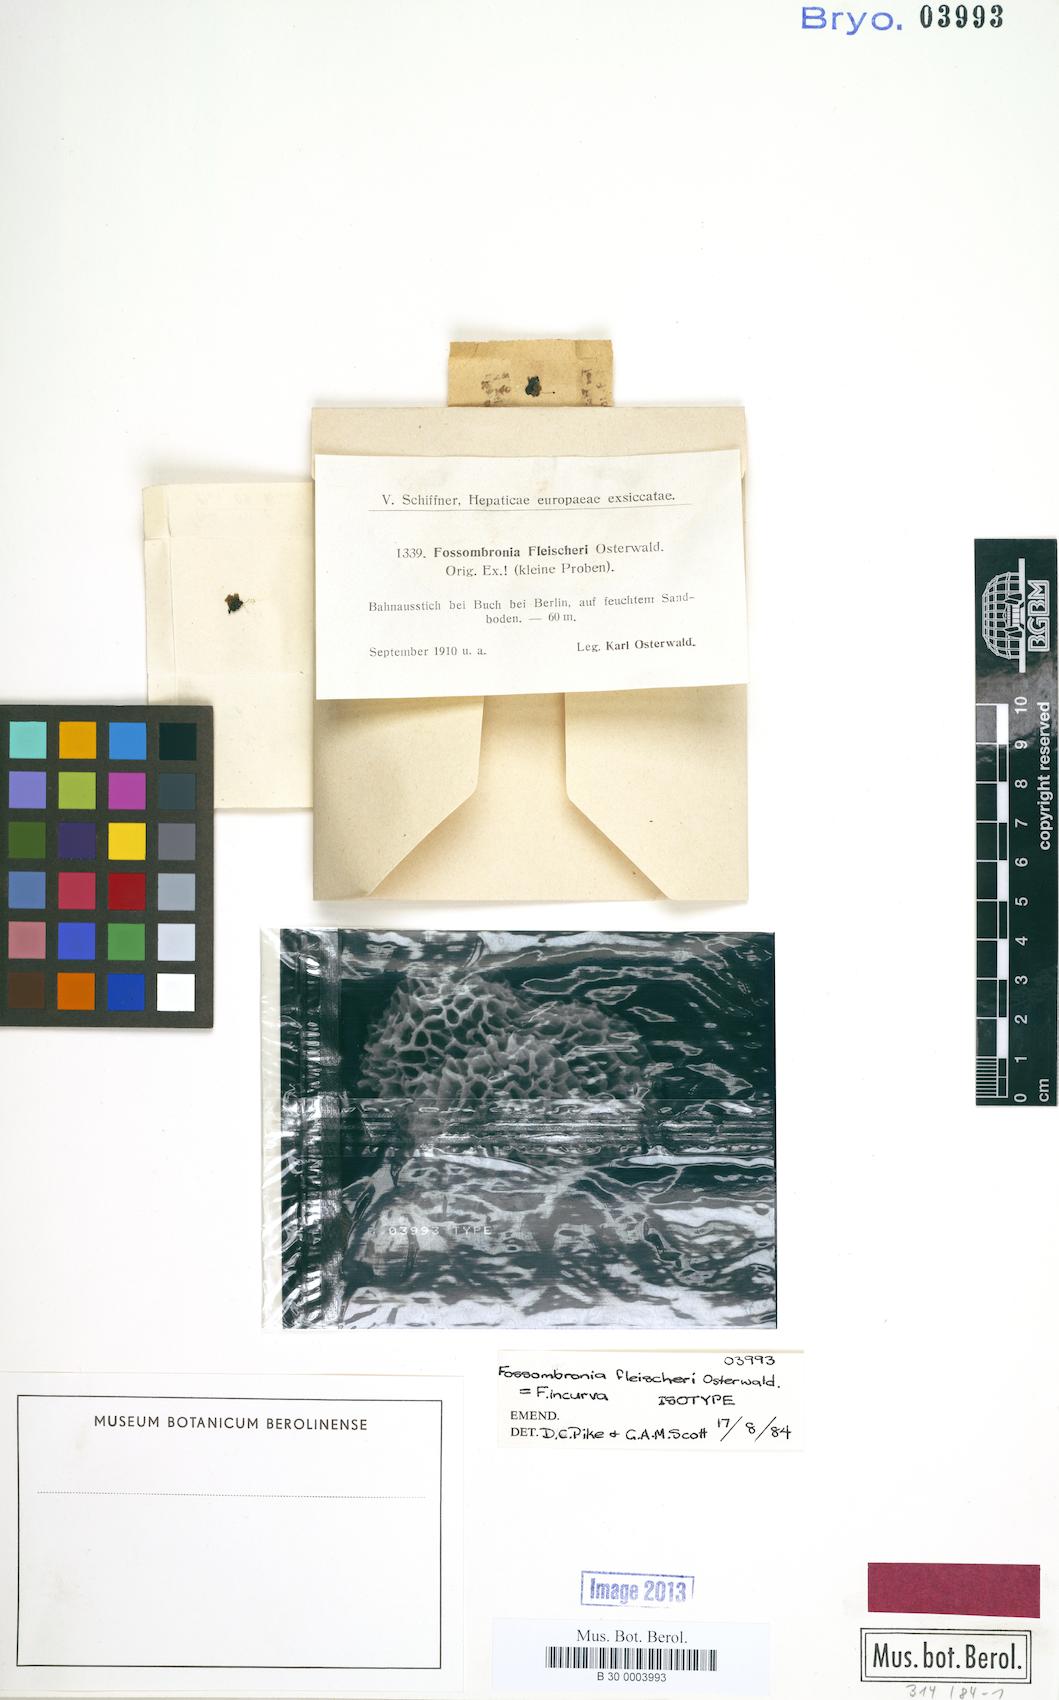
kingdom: Plantae
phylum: Marchantiophyta
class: Jungermanniopsida
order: Fossombroniales
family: Fossombroniaceae
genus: Fossombronia
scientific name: Fossombronia incurva
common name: Weedy frillwort
